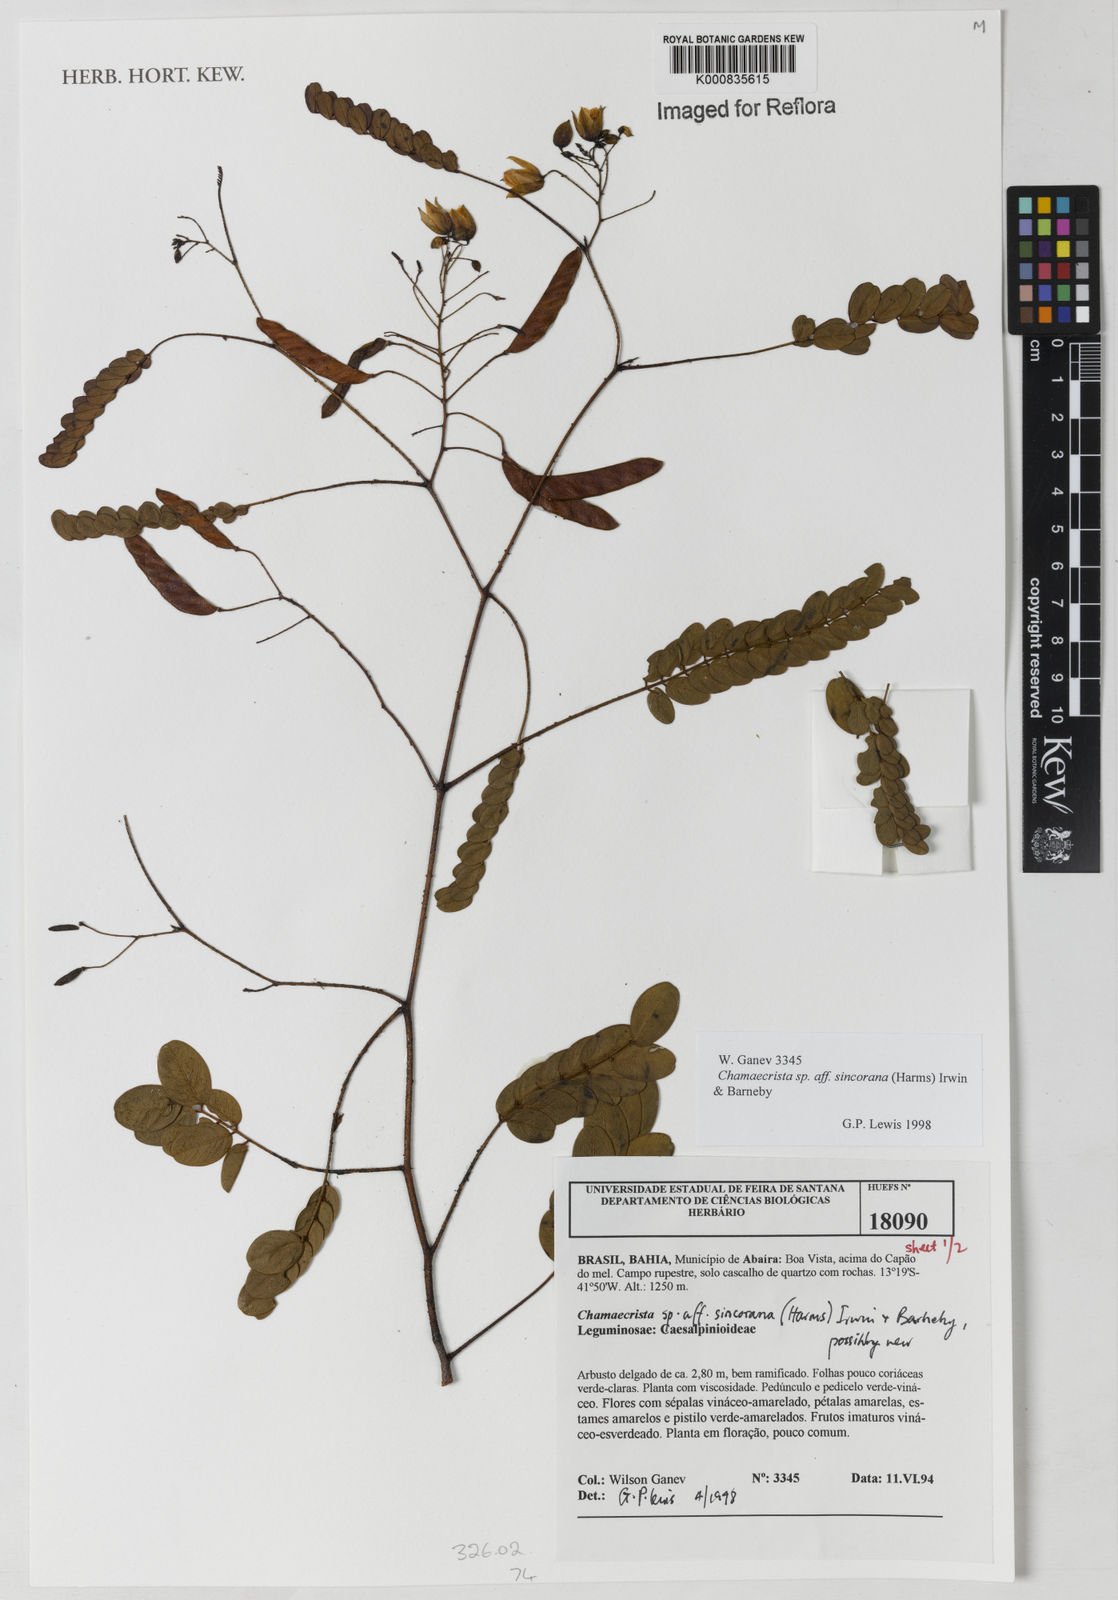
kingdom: Plantae
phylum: Tracheophyta
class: Magnoliopsida
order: Fabales
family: Fabaceae
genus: Chamaecrista
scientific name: Chamaecrista sincorana
